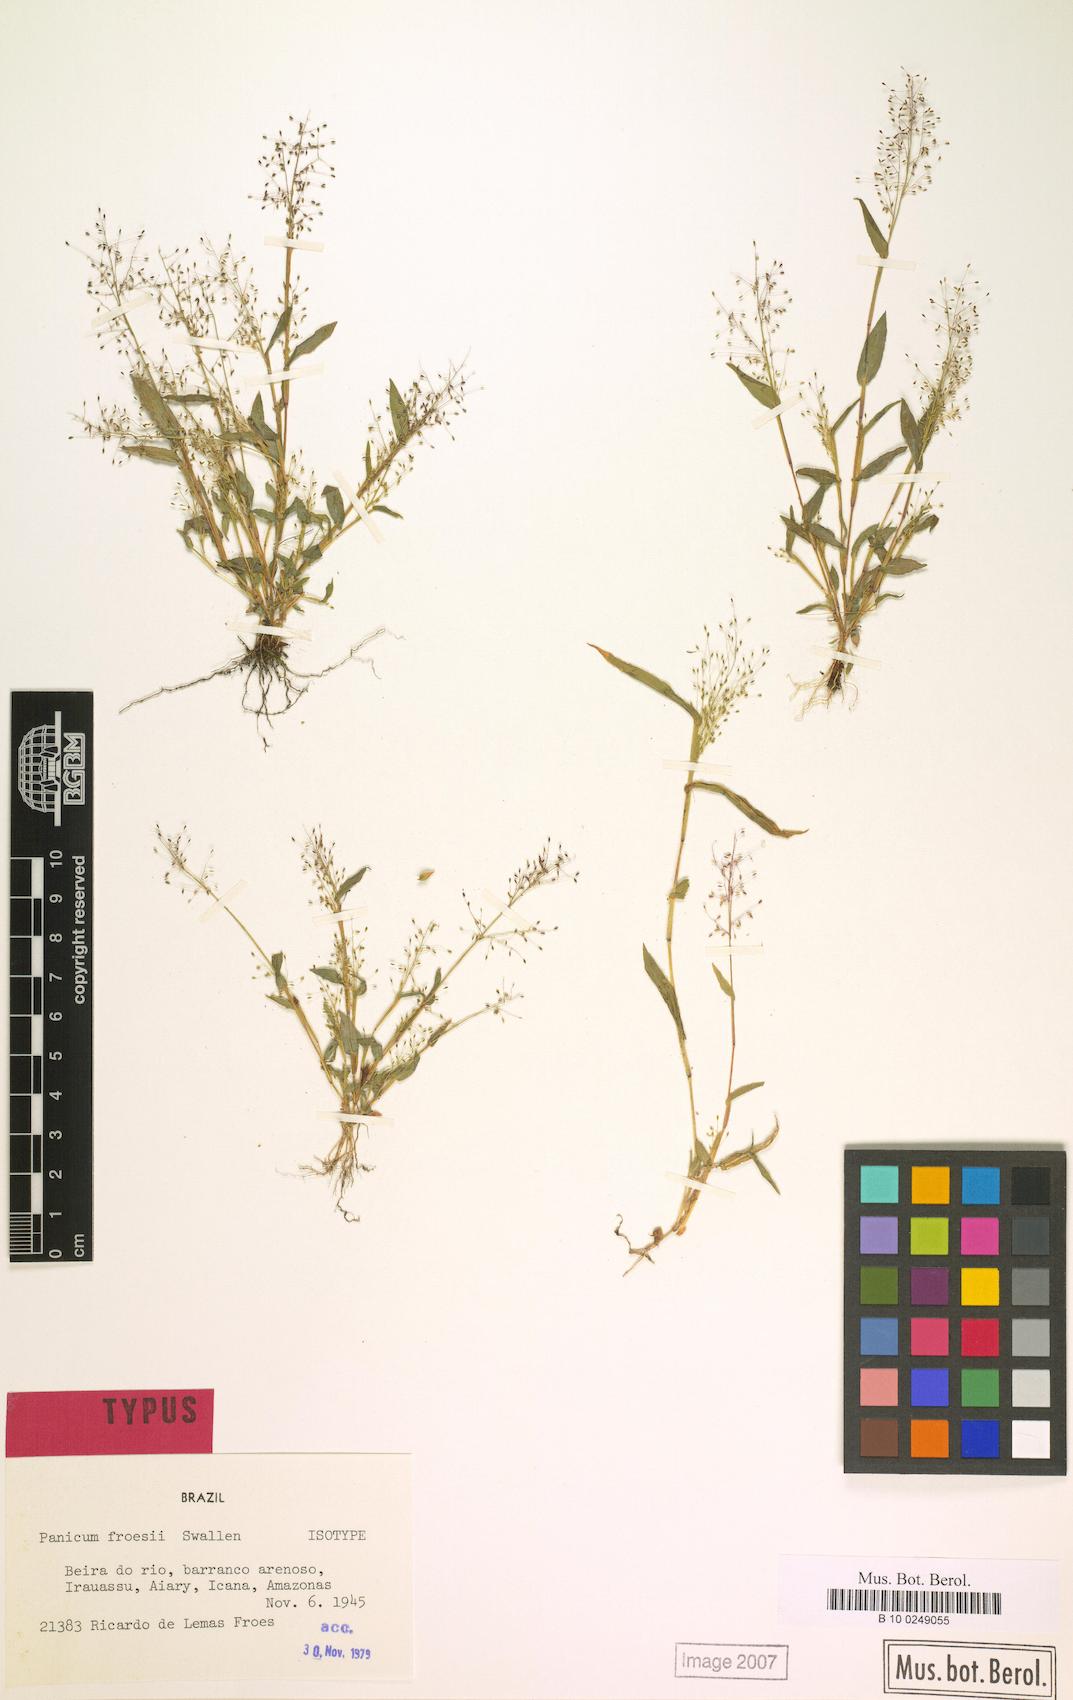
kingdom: Plantae
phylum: Tracheophyta
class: Liliopsida
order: Poales
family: Poaceae
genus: Trichanthecium
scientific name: Trichanthecium polycomum
